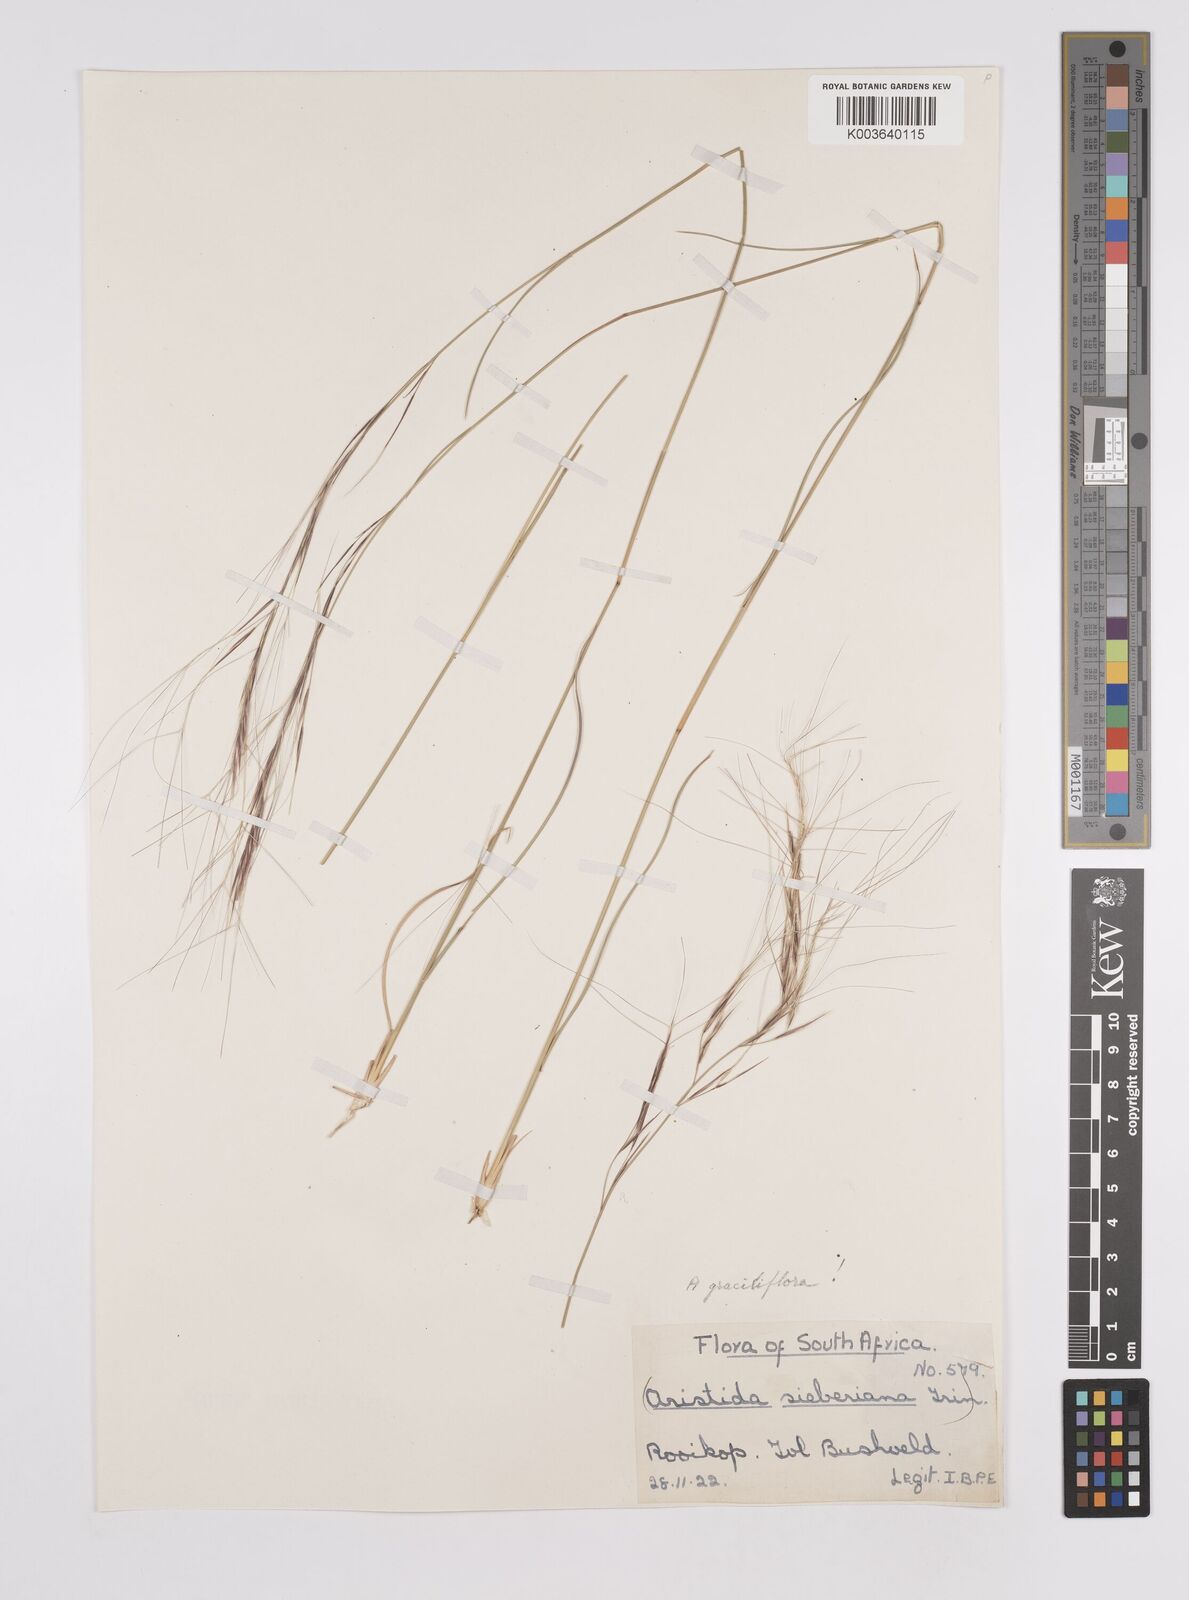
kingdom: Plantae
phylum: Tracheophyta
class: Liliopsida
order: Poales
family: Poaceae
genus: Aristida
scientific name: Aristida stipitata
